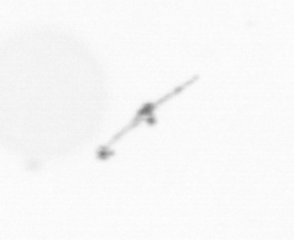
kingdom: Chromista
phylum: Ochrophyta
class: Bacillariophyceae
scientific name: Bacillariophyceae
